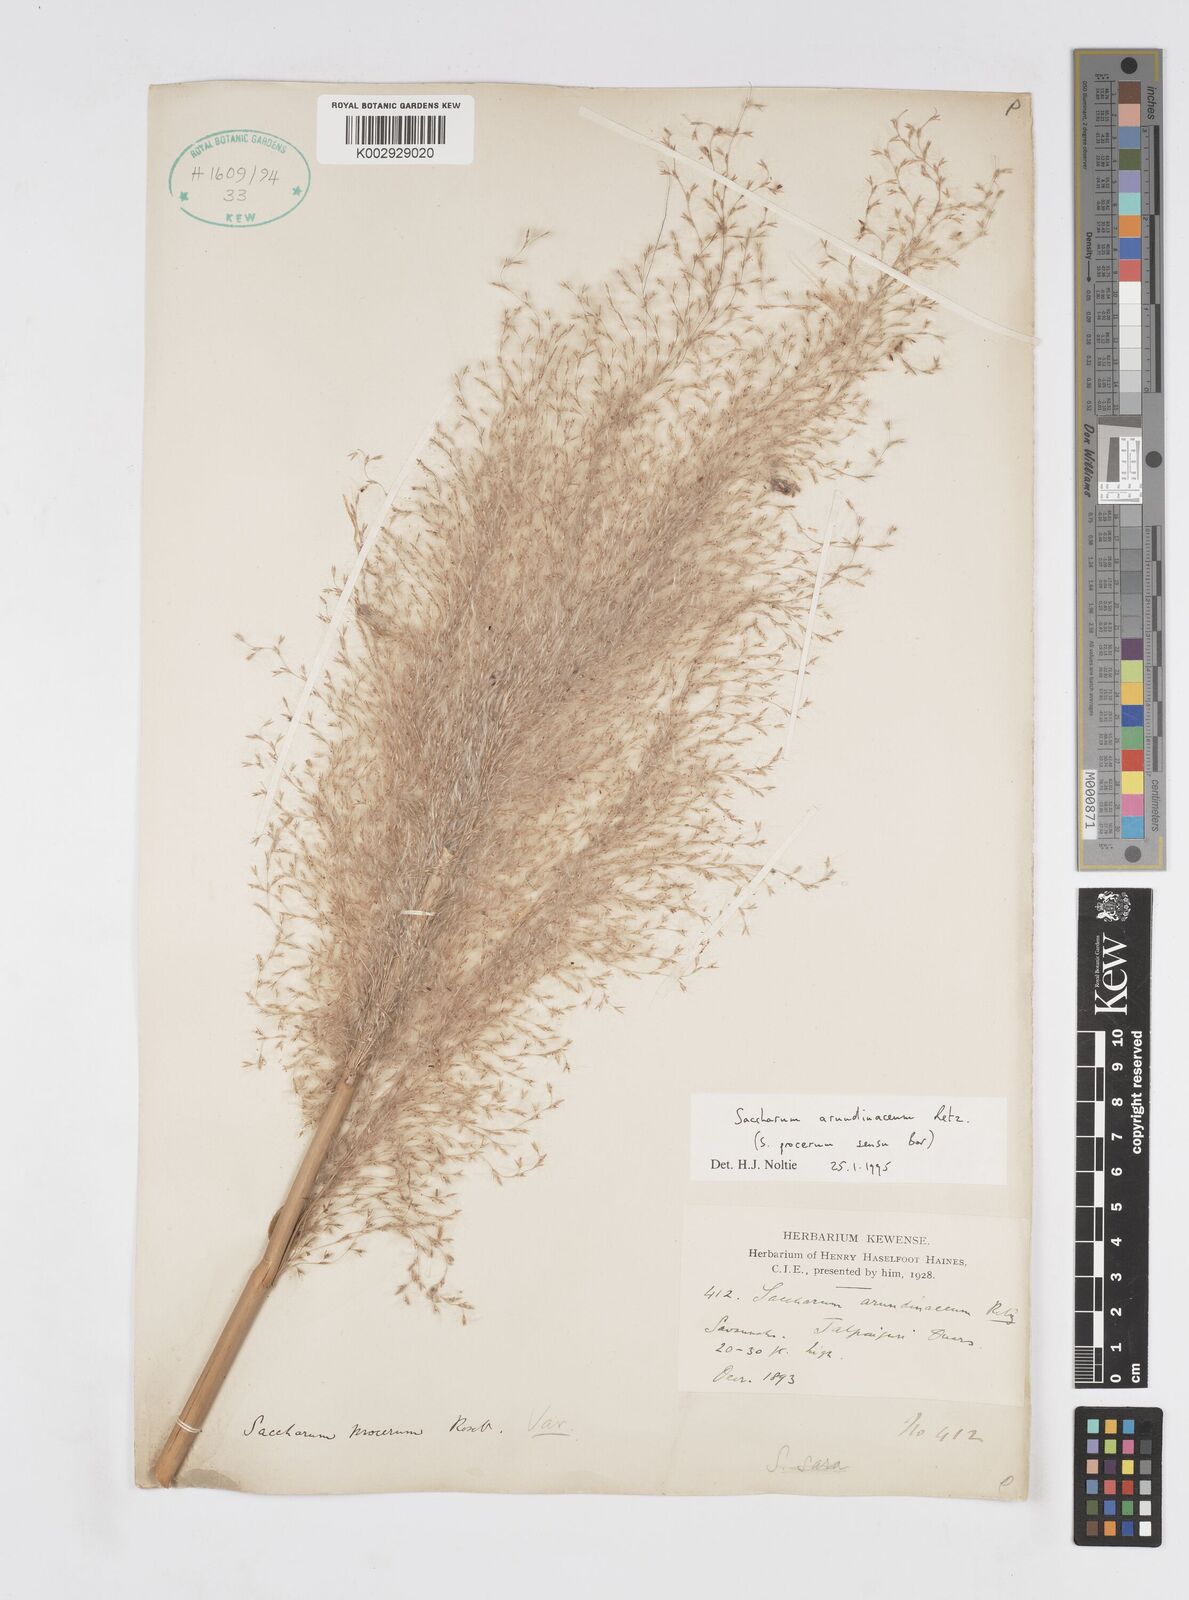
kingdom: Plantae
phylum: Tracheophyta
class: Liliopsida
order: Poales
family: Poaceae
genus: Tripidium
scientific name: Tripidium arundinaceum
